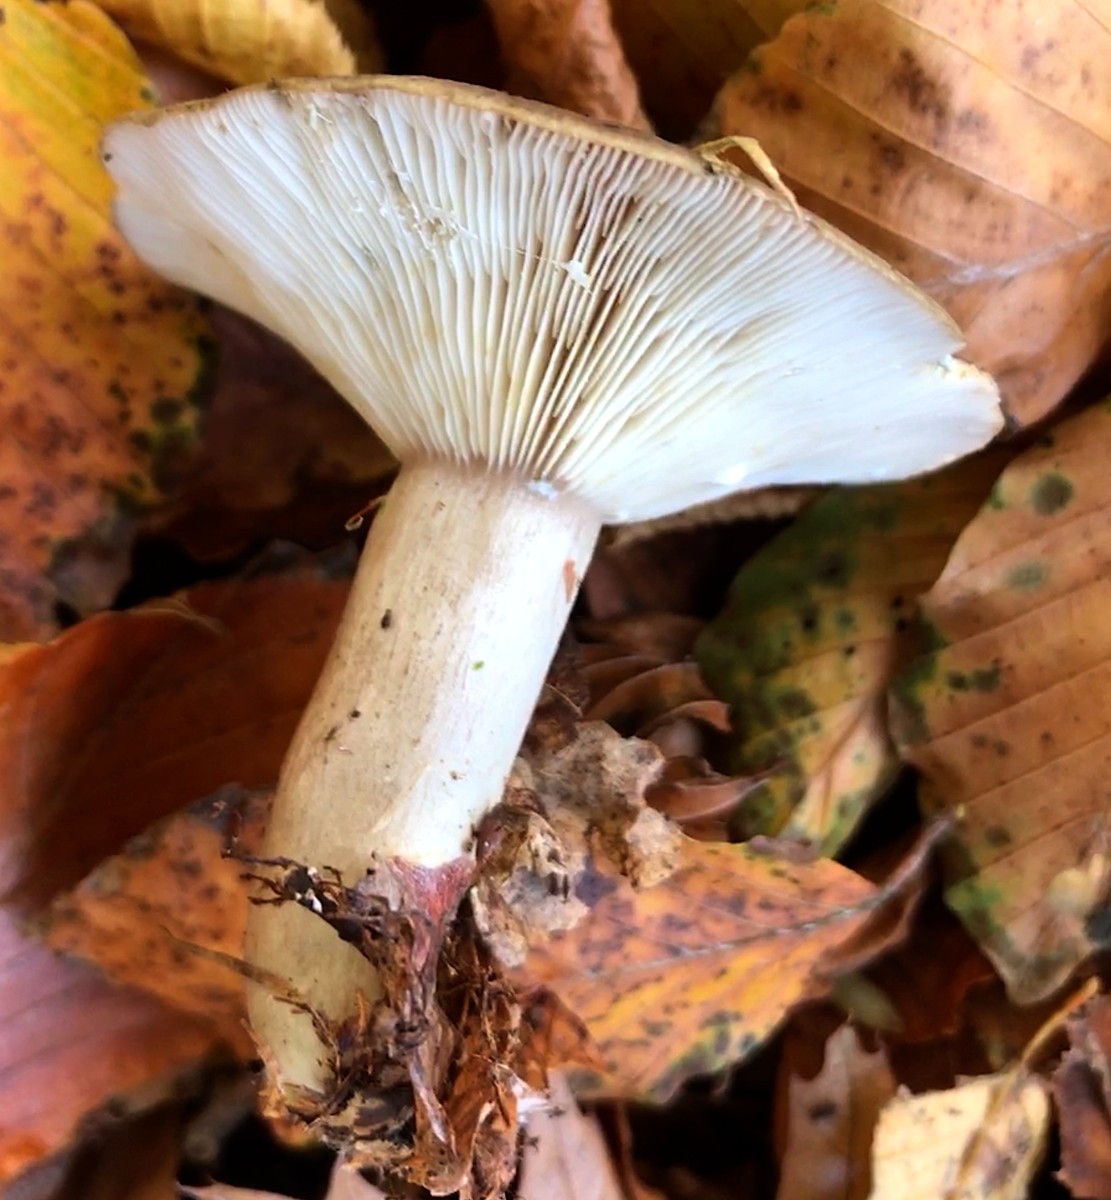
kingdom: Fungi
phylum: Basidiomycota
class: Agaricomycetes
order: Russulales
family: Russulaceae
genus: Lactarius
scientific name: Lactarius blennius
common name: dråbeplettet mælkehat
